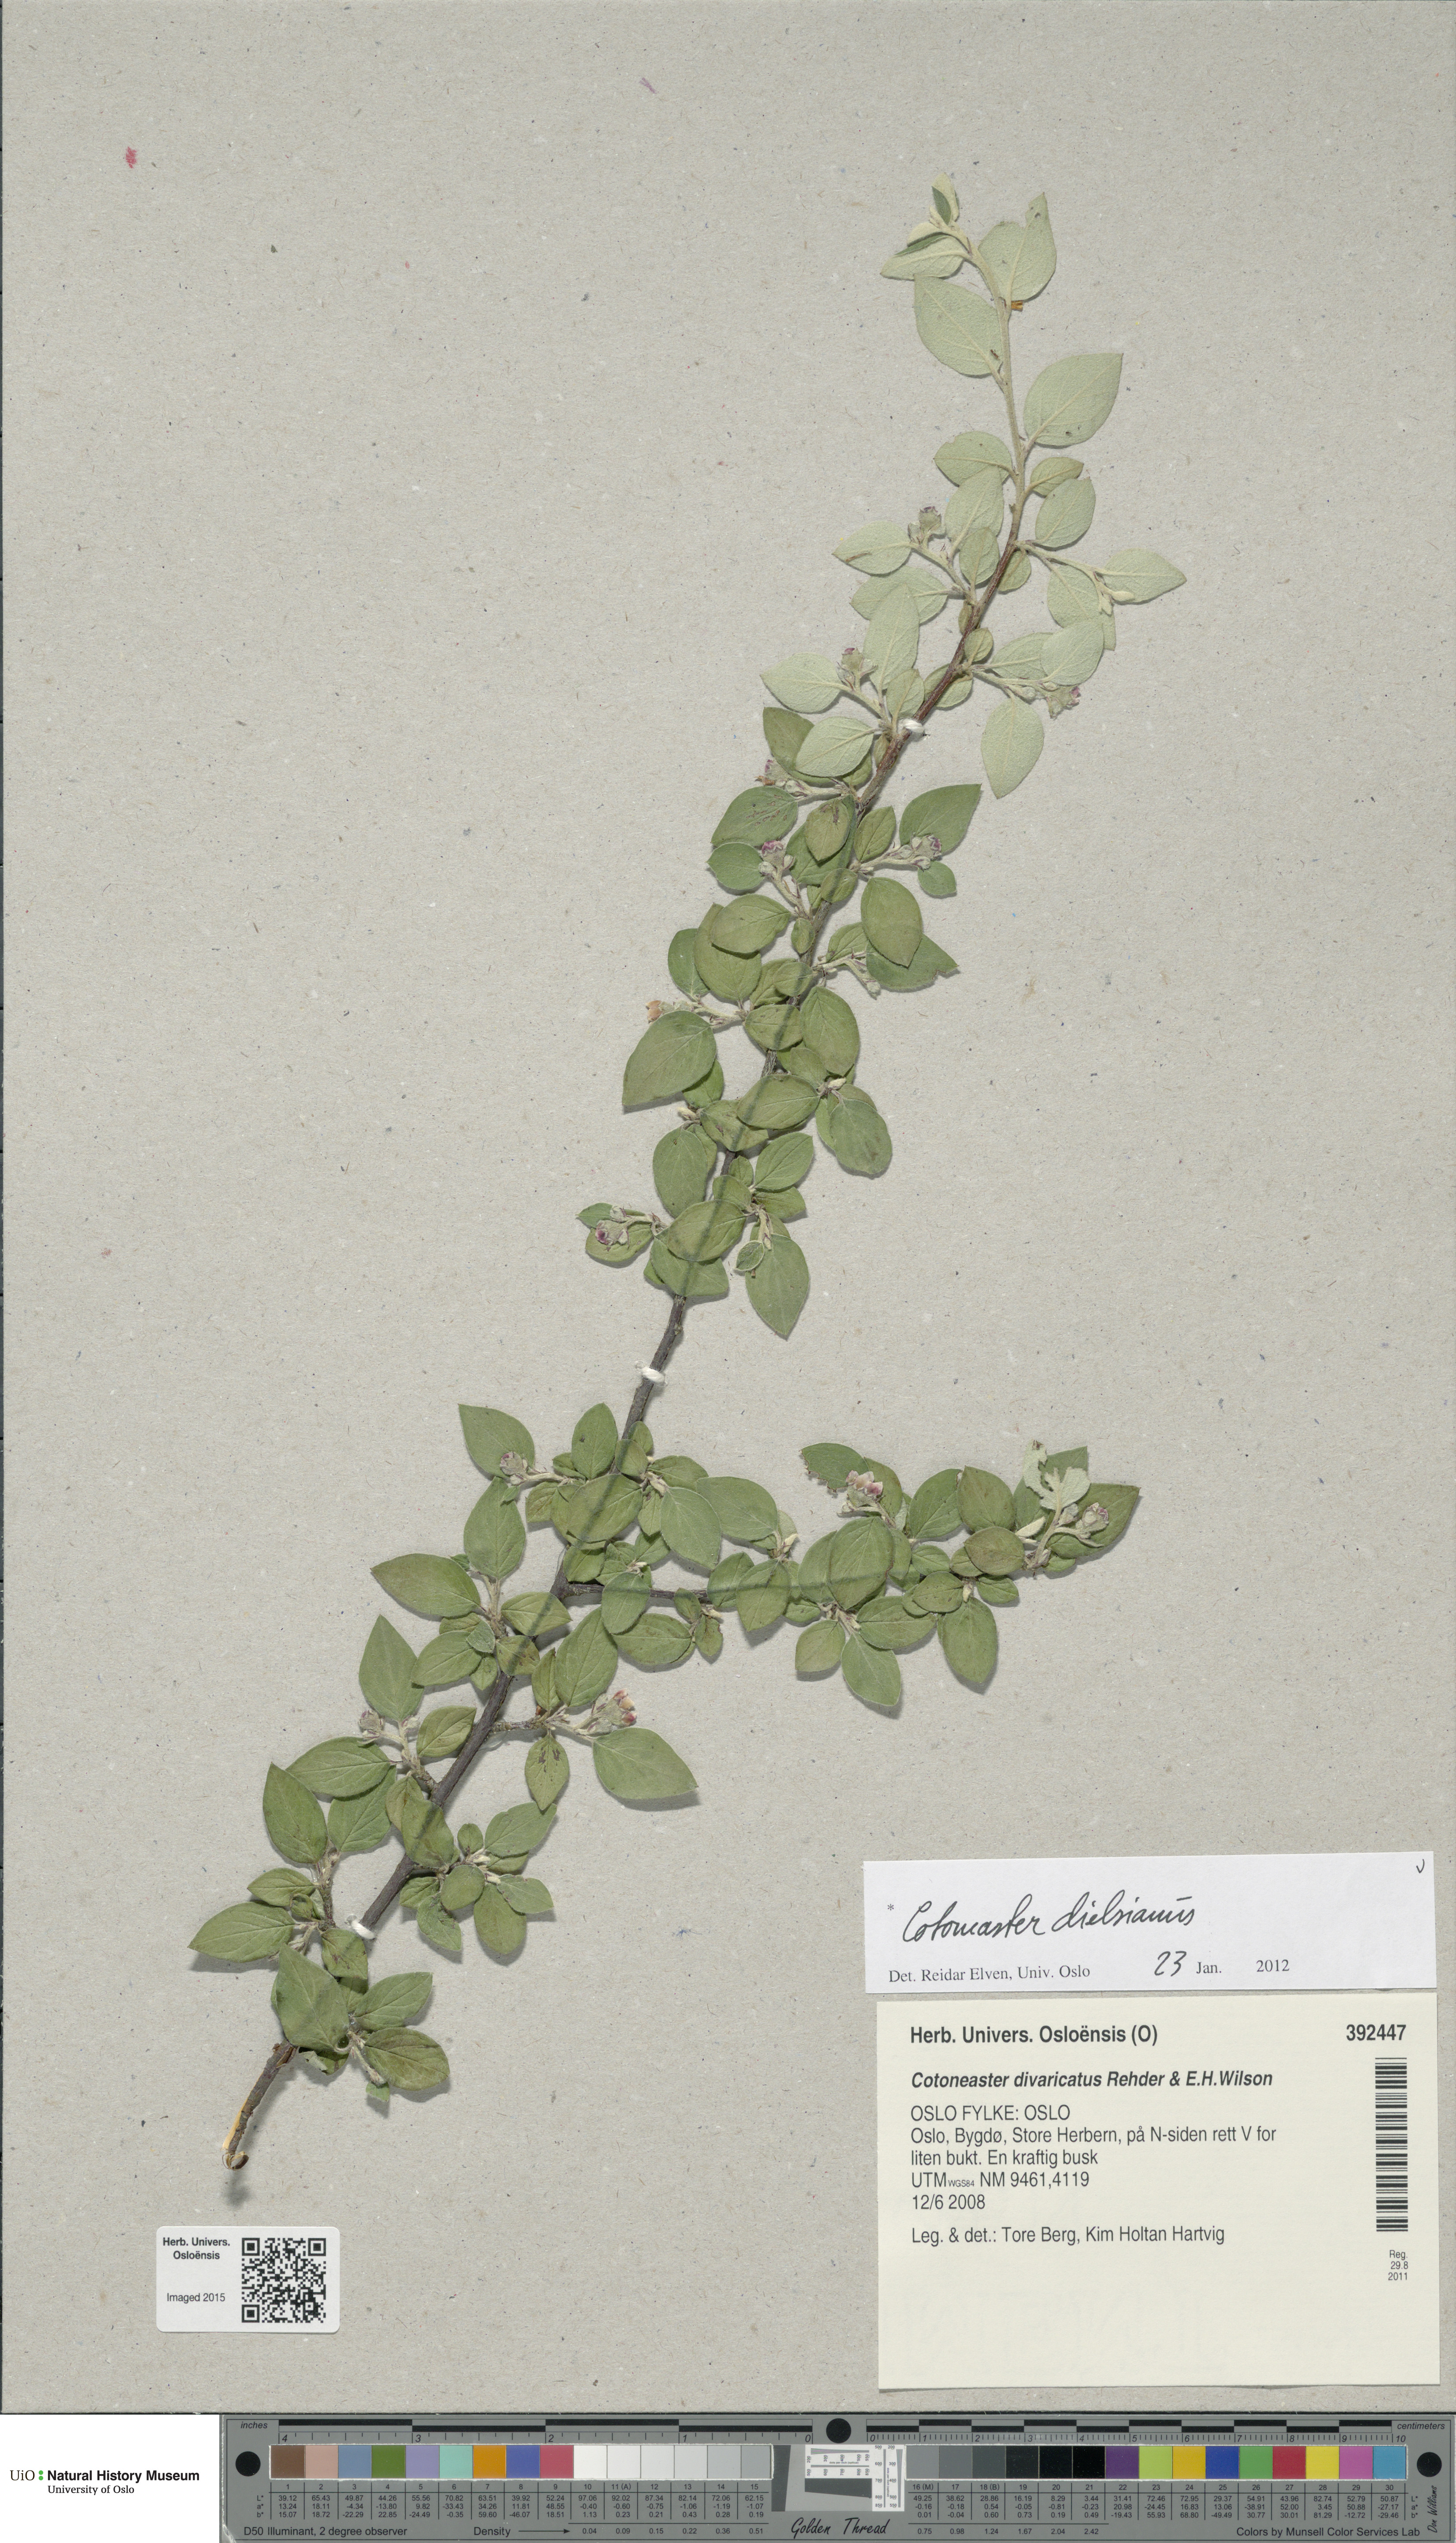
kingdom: Plantae
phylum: Tracheophyta
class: Magnoliopsida
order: Rosales
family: Rosaceae
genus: Cotoneaster
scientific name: Cotoneaster dielsianus
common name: Diels's cotoneaster
